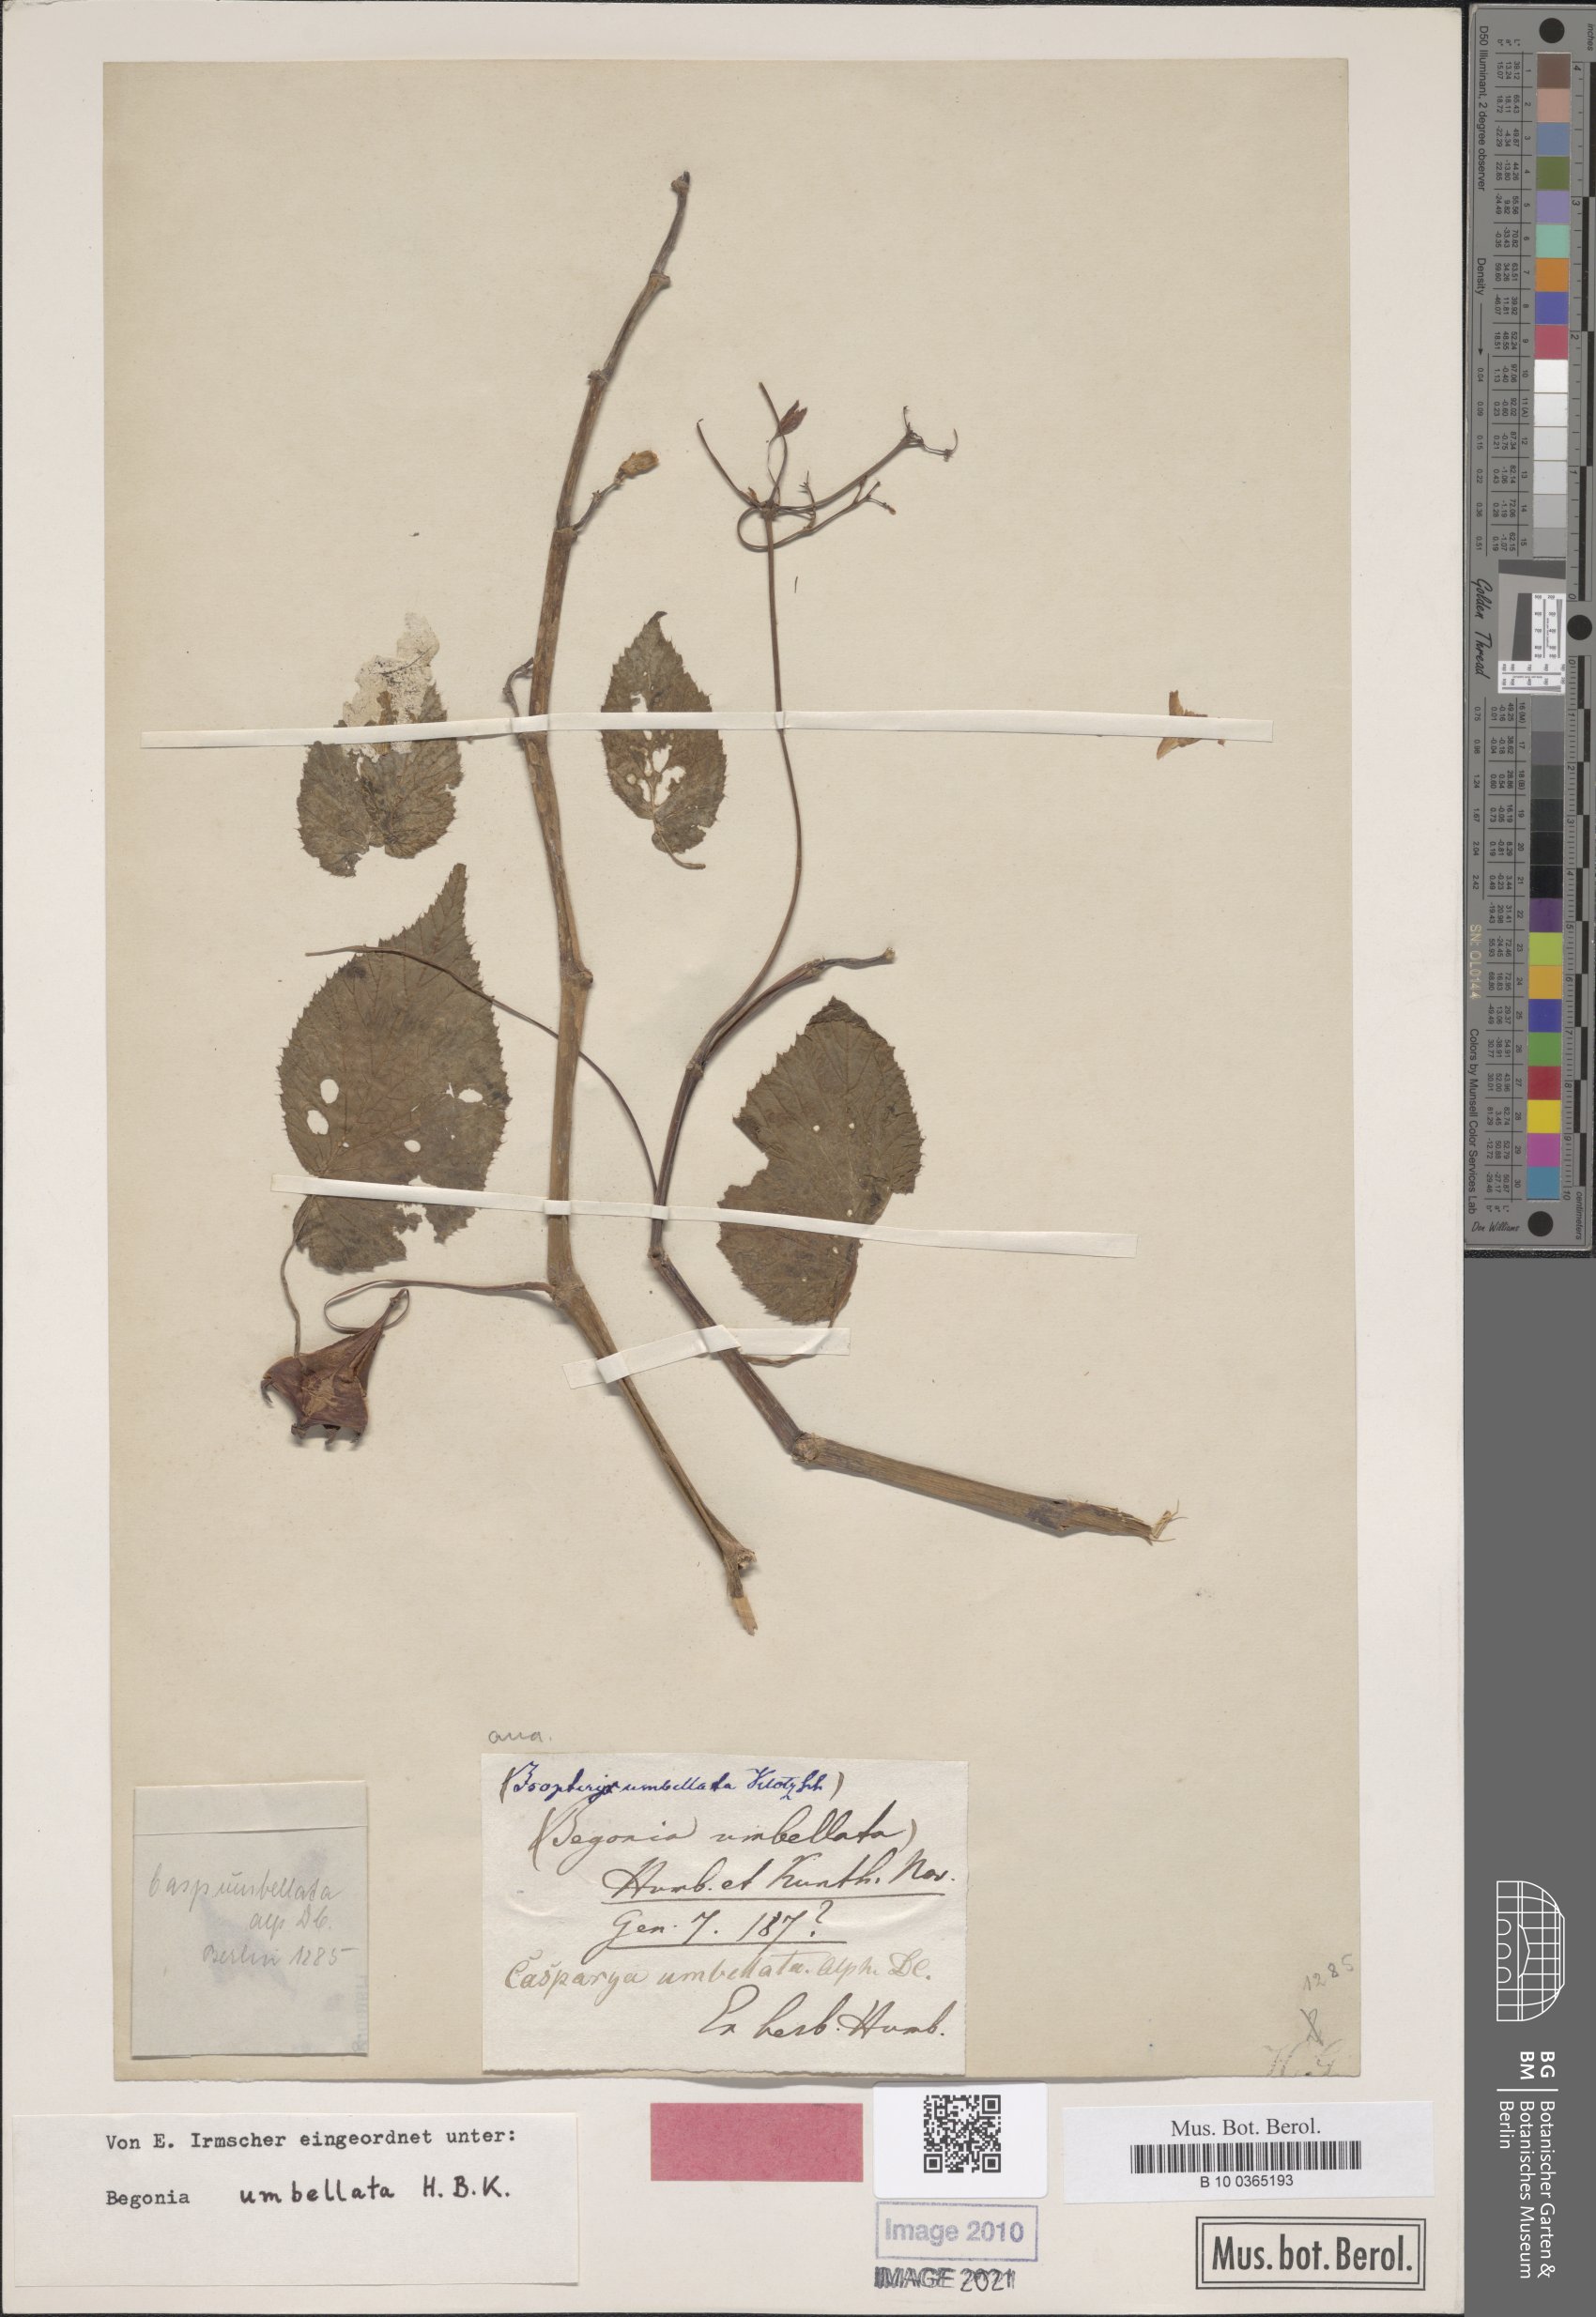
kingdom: Plantae
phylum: Tracheophyta
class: Magnoliopsida
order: Cucurbitales
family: Begoniaceae
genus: Begonia
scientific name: Begonia umbellata
